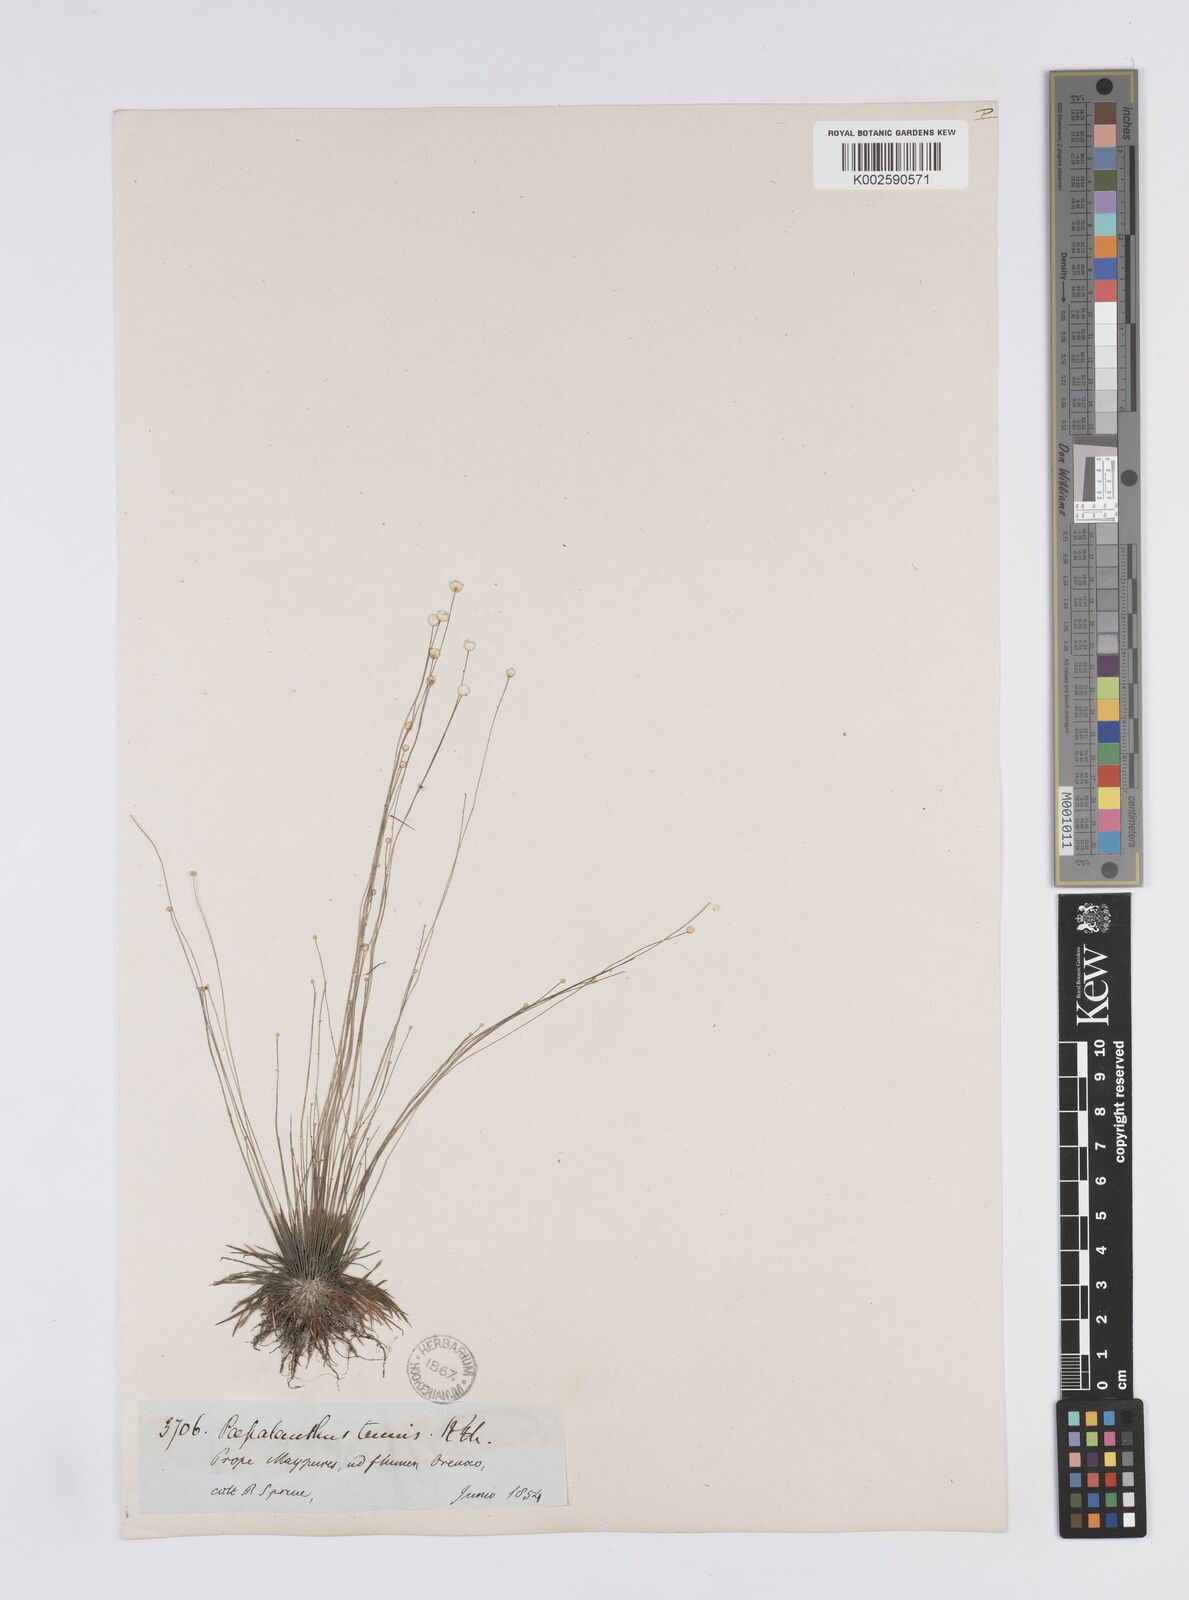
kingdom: Plantae
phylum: Tracheophyta
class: Liliopsida
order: Poales
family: Eriocaulaceae
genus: Syngonanthus
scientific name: Syngonanthus tenuis
